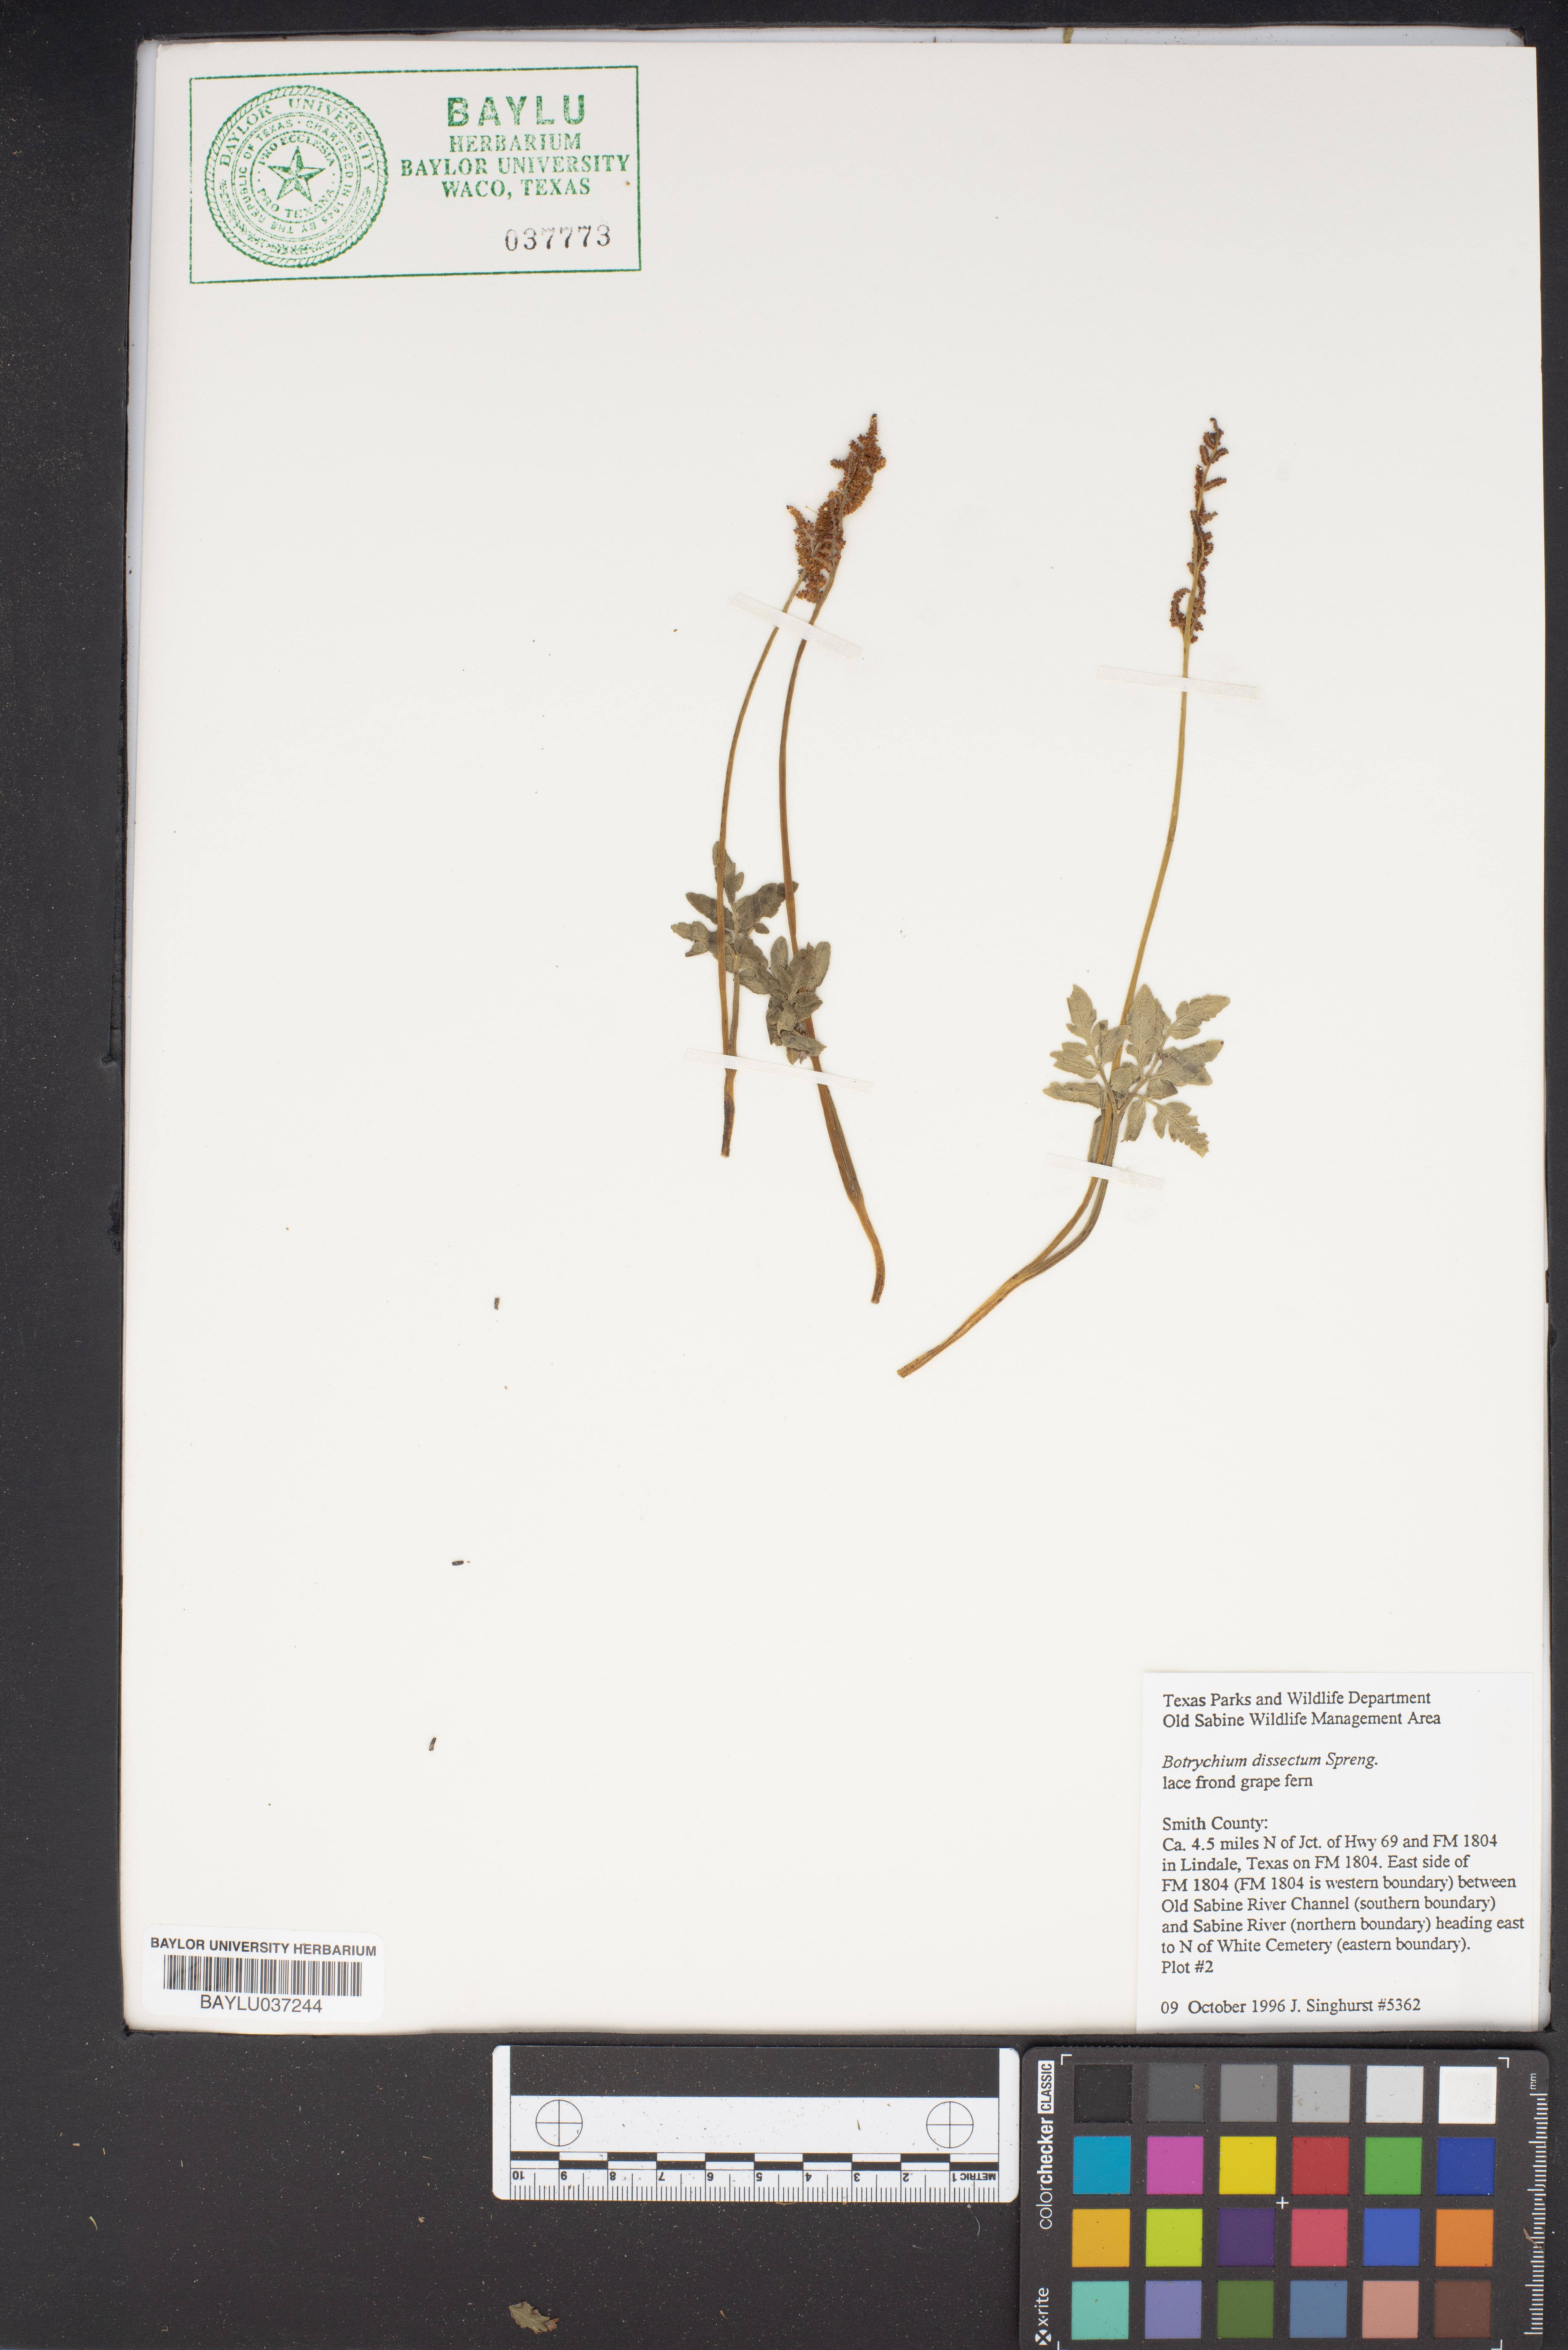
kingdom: Plantae
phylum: Tracheophyta
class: Polypodiopsida
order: Ophioglossales
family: Ophioglossaceae
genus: Sceptridium
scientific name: Sceptridium dissectum
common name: Cut-leaved grapefern
